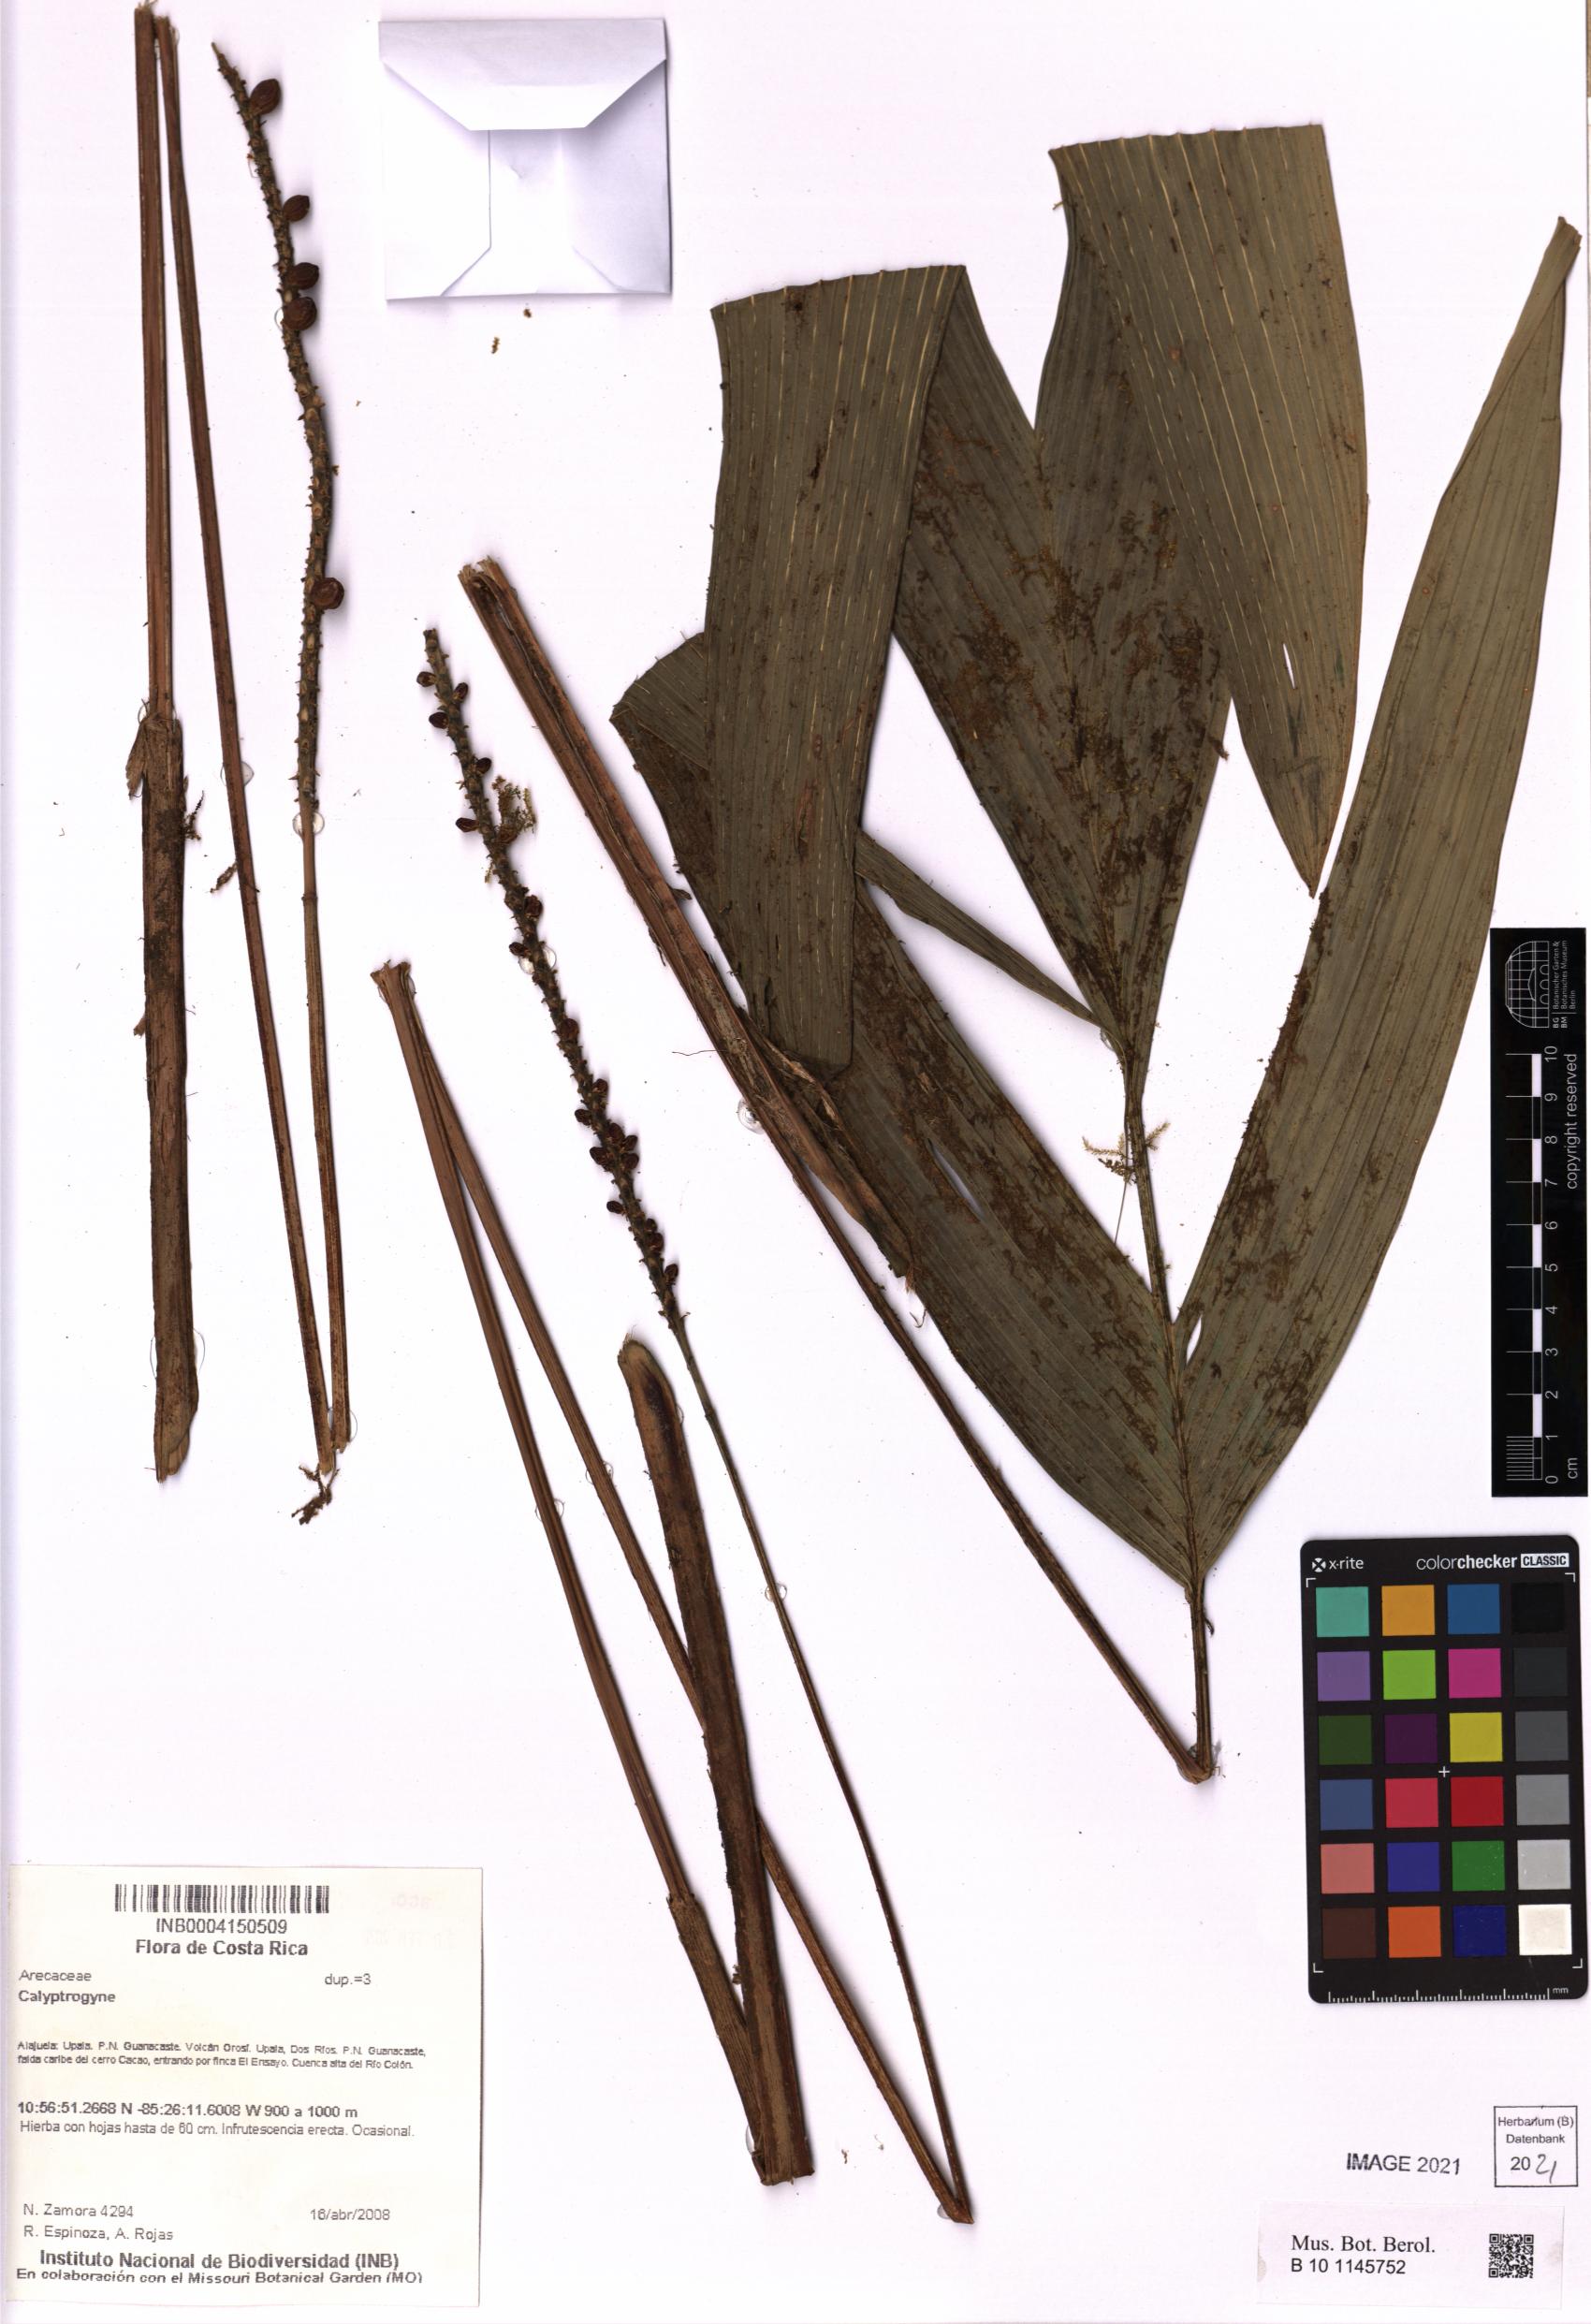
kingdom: Plantae
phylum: Tracheophyta
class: Liliopsida
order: Arecales
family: Arecaceae
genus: Calyptrogyne
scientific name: Calyptrogyne
